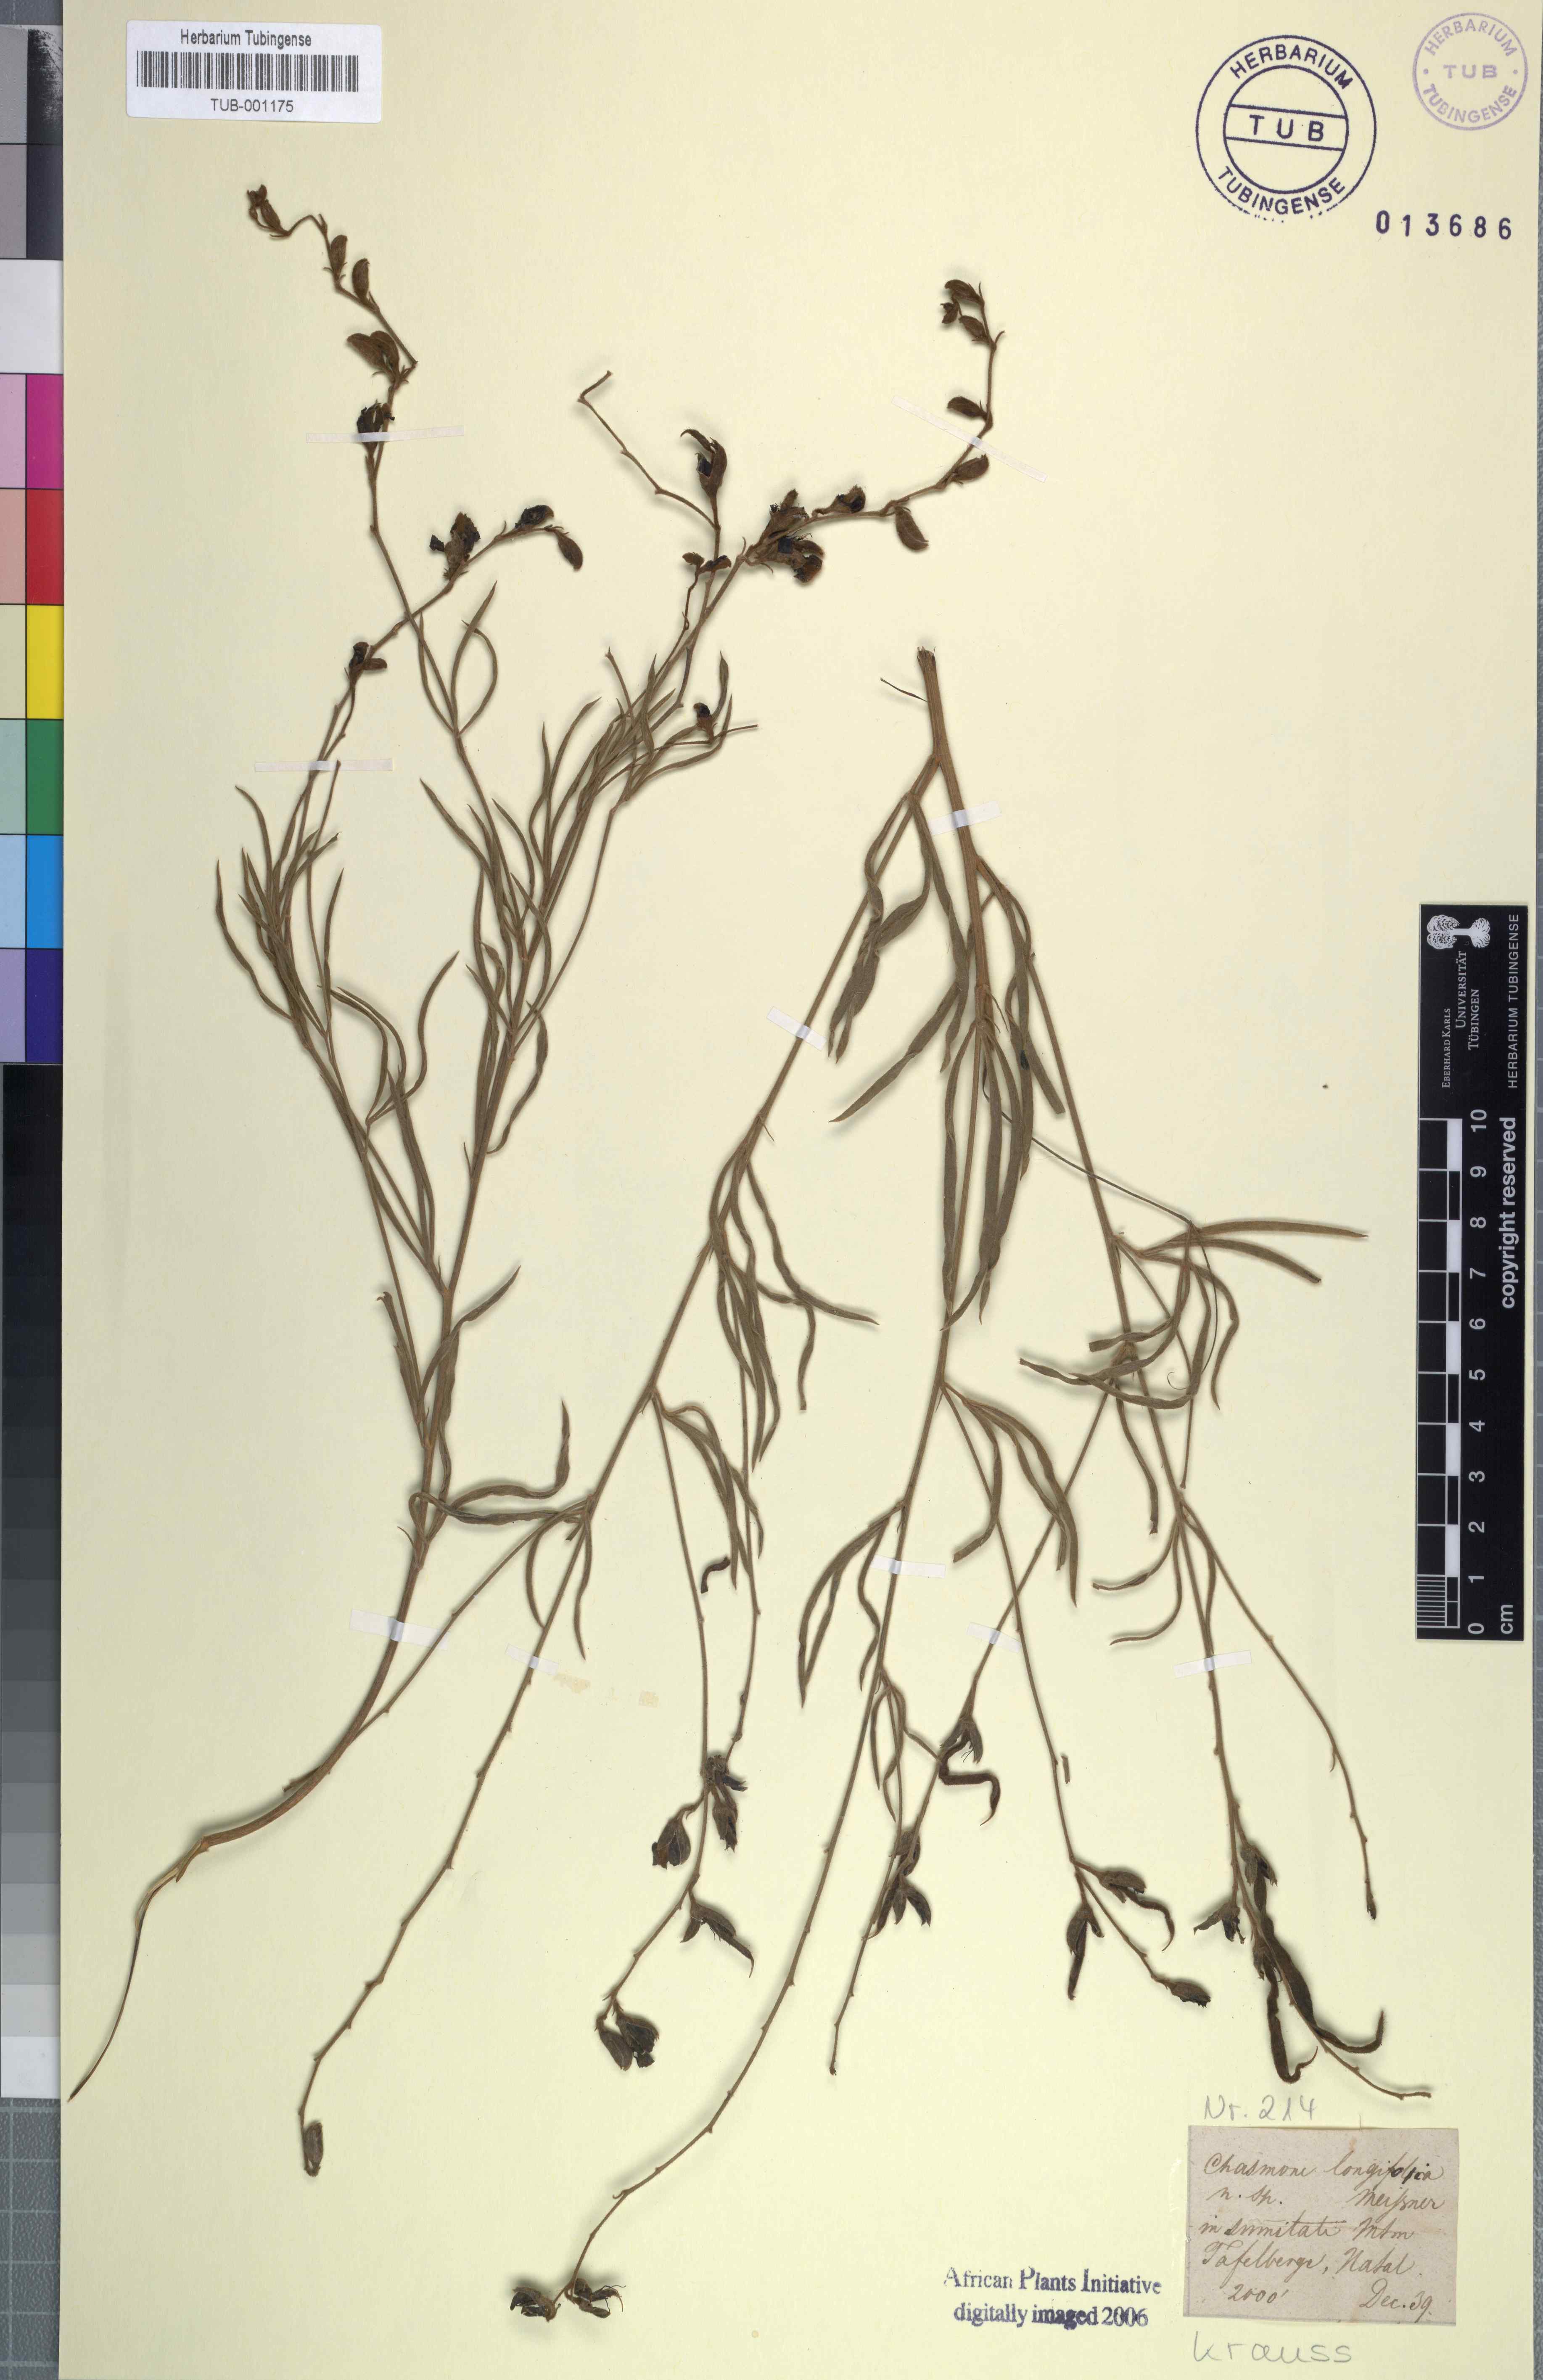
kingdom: Plantae
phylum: Tracheophyta
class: Magnoliopsida
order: Fabales
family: Fabaceae
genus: Argyrolobium
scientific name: Argyrolobium longifolium
